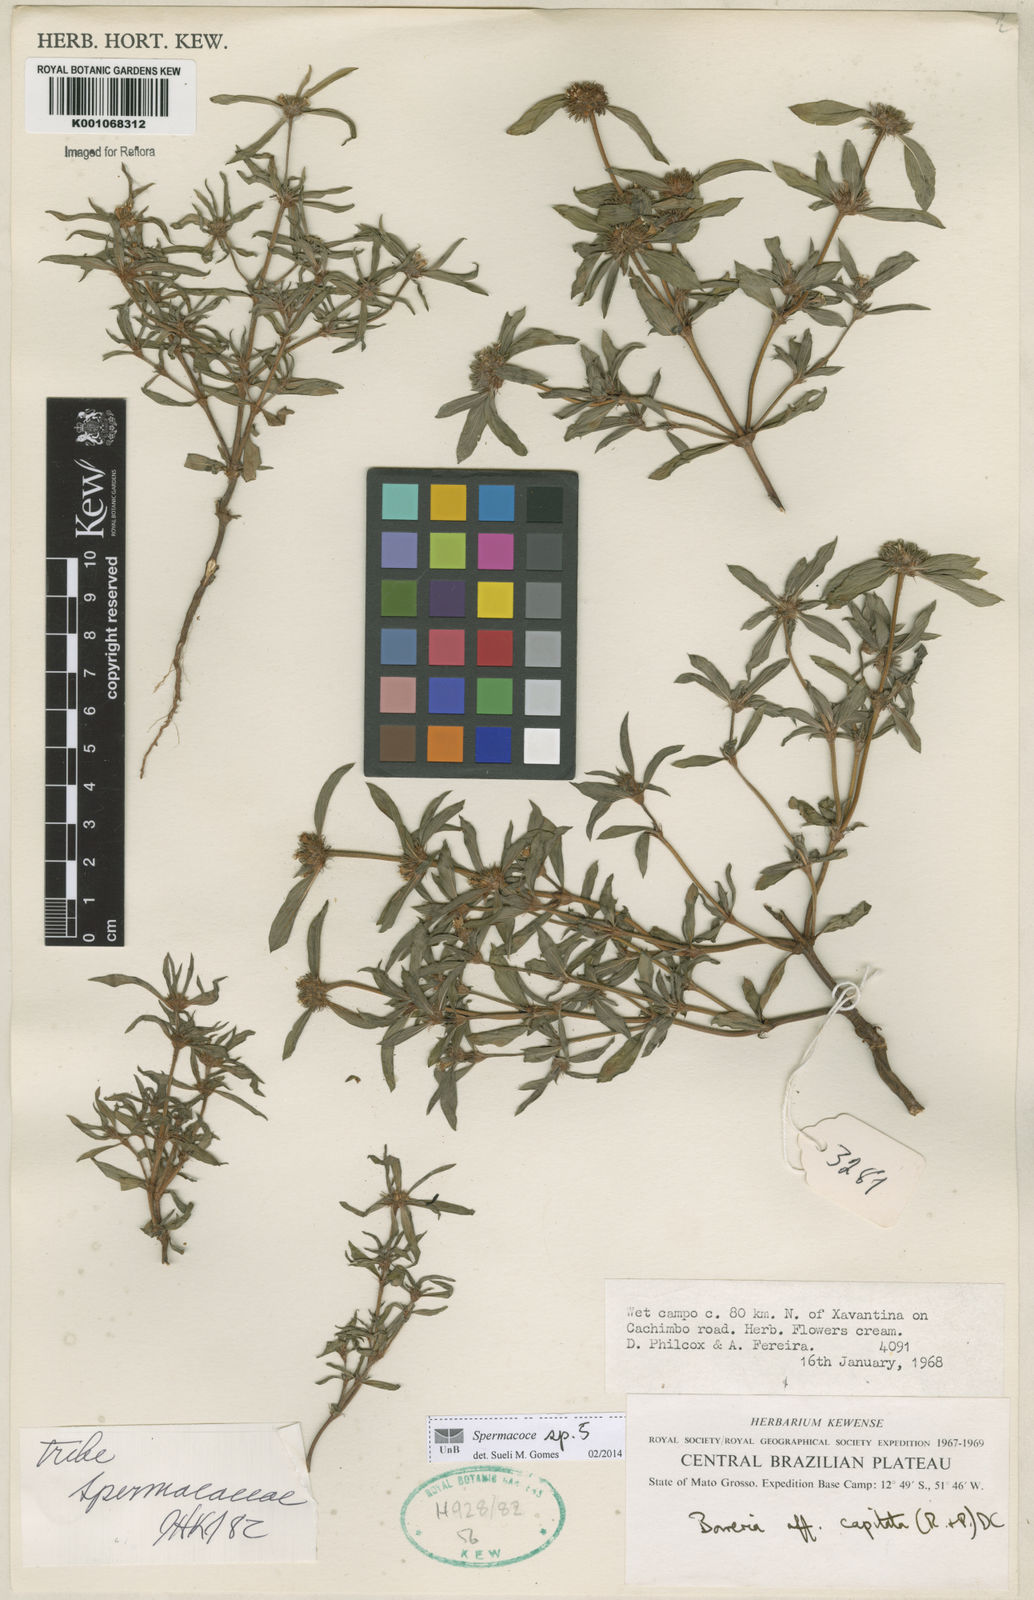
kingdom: Plantae
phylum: Tracheophyta
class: Magnoliopsida
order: Gentianales
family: Rubiaceae
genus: Spermacoce
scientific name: Spermacoce
